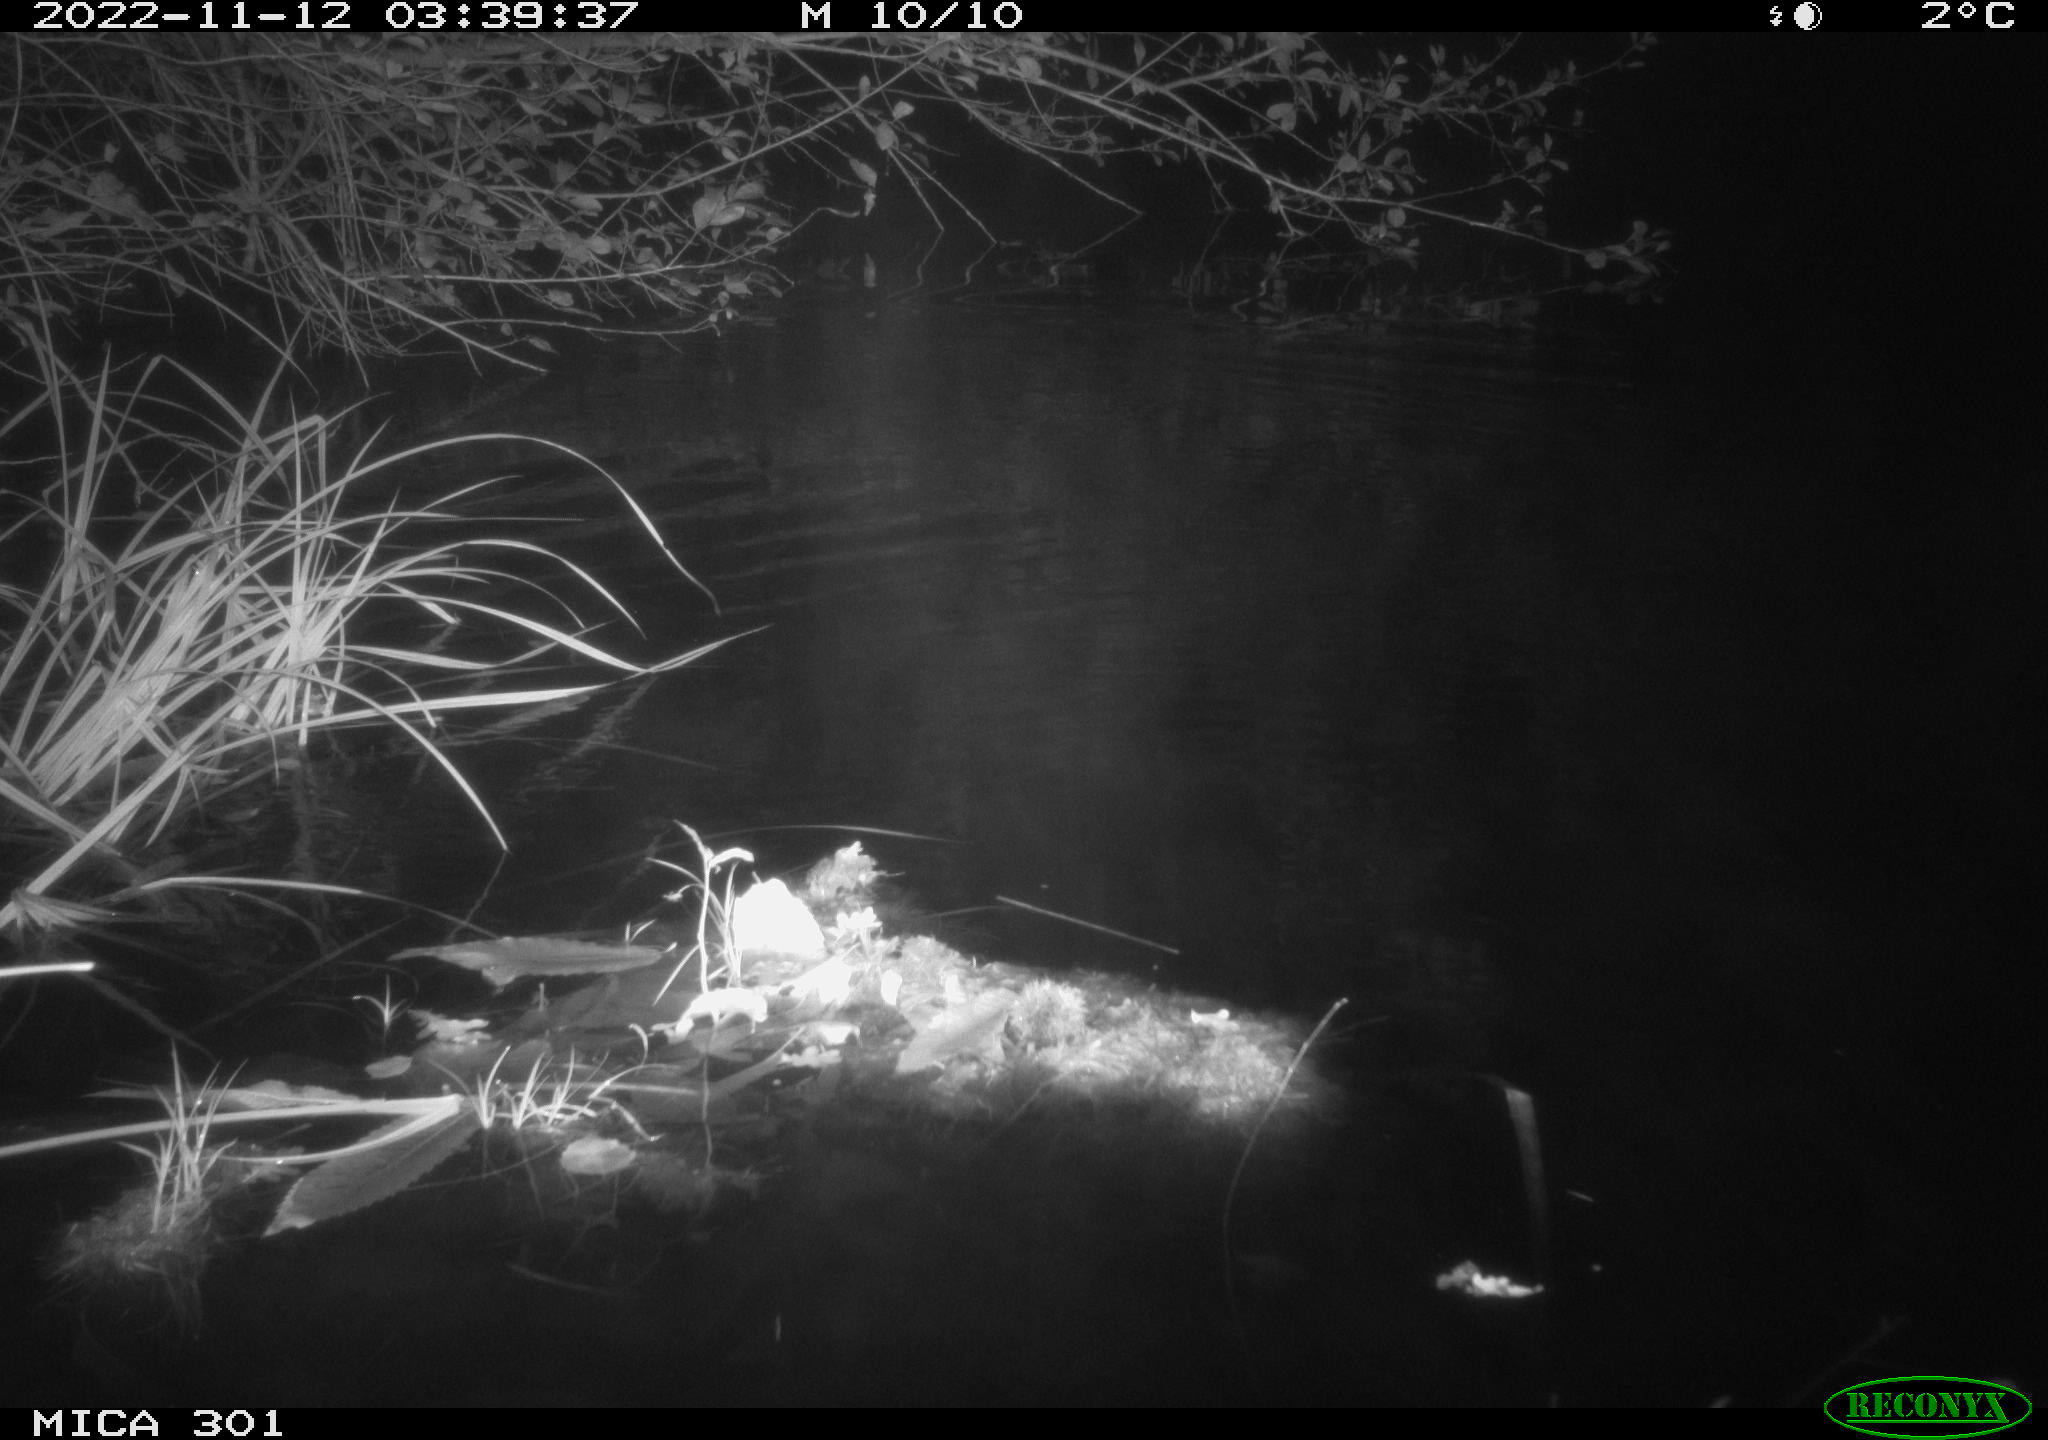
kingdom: Animalia
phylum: Chordata
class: Mammalia
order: Rodentia
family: Castoridae
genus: Castor
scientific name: Castor fiber
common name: Eurasian beaver
